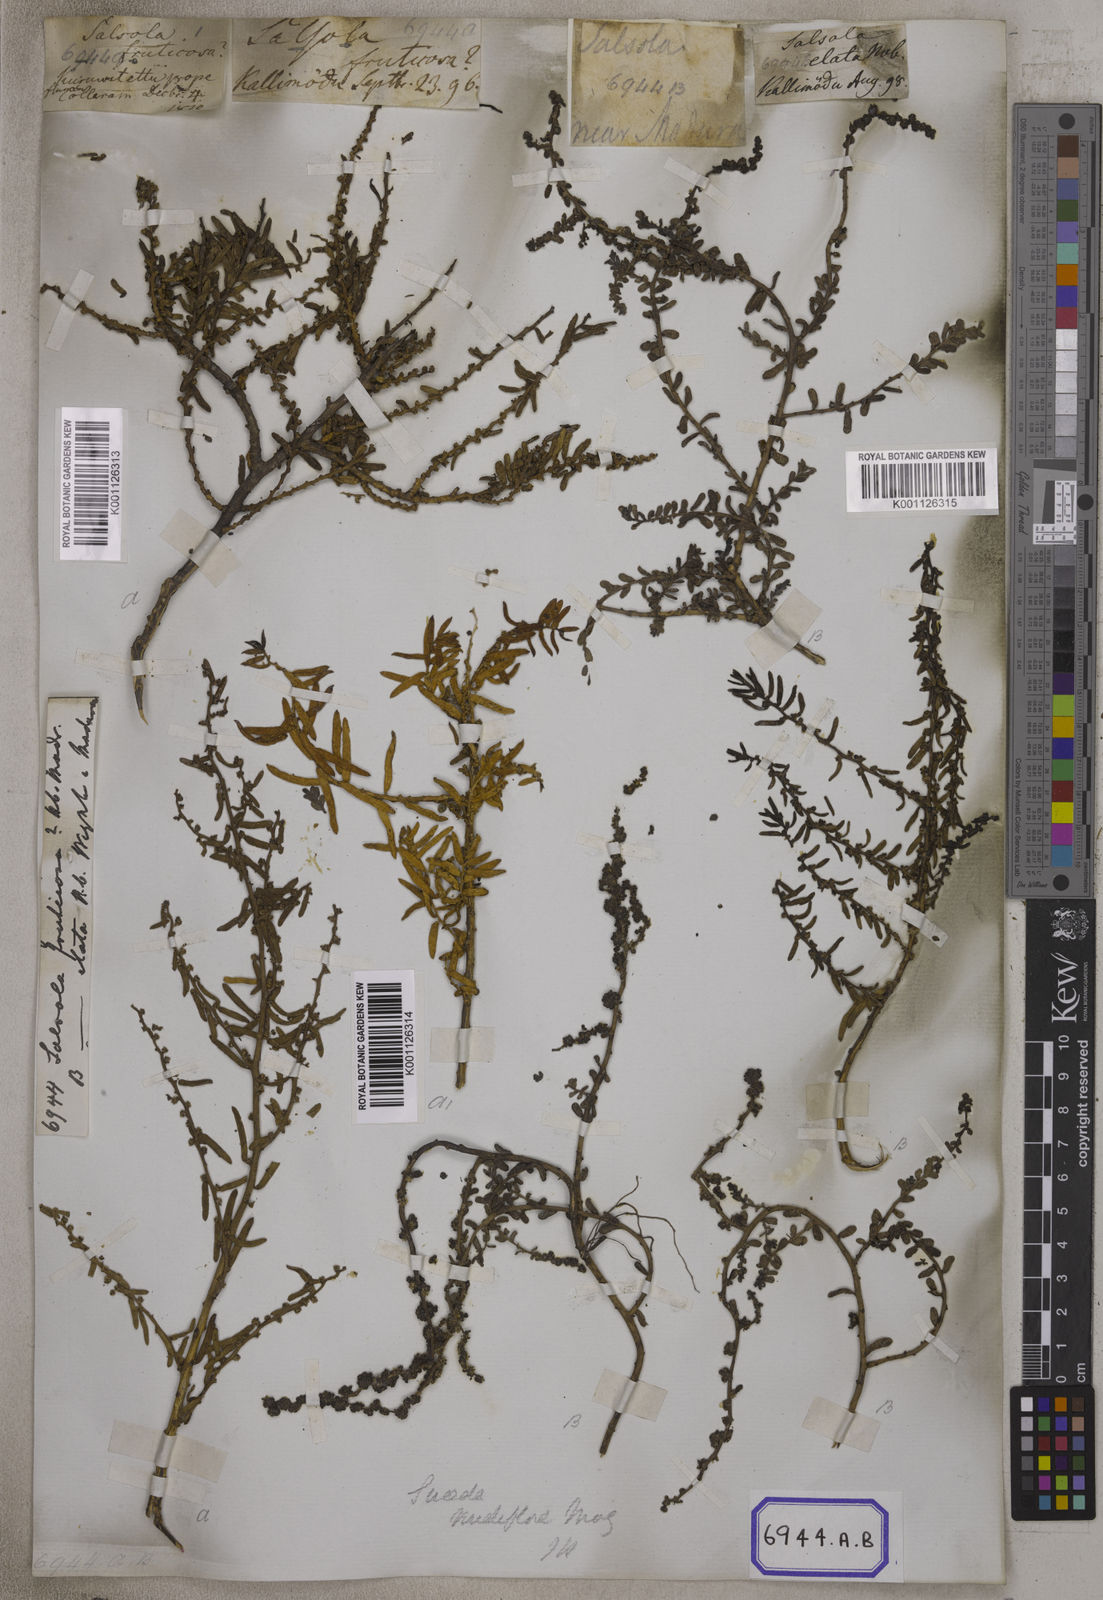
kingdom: Plantae
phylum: Tracheophyta
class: Magnoliopsida
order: Caryophyllales
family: Amaranthaceae
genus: Suaeda
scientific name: Suaeda maritima
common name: Annual sea-blite
